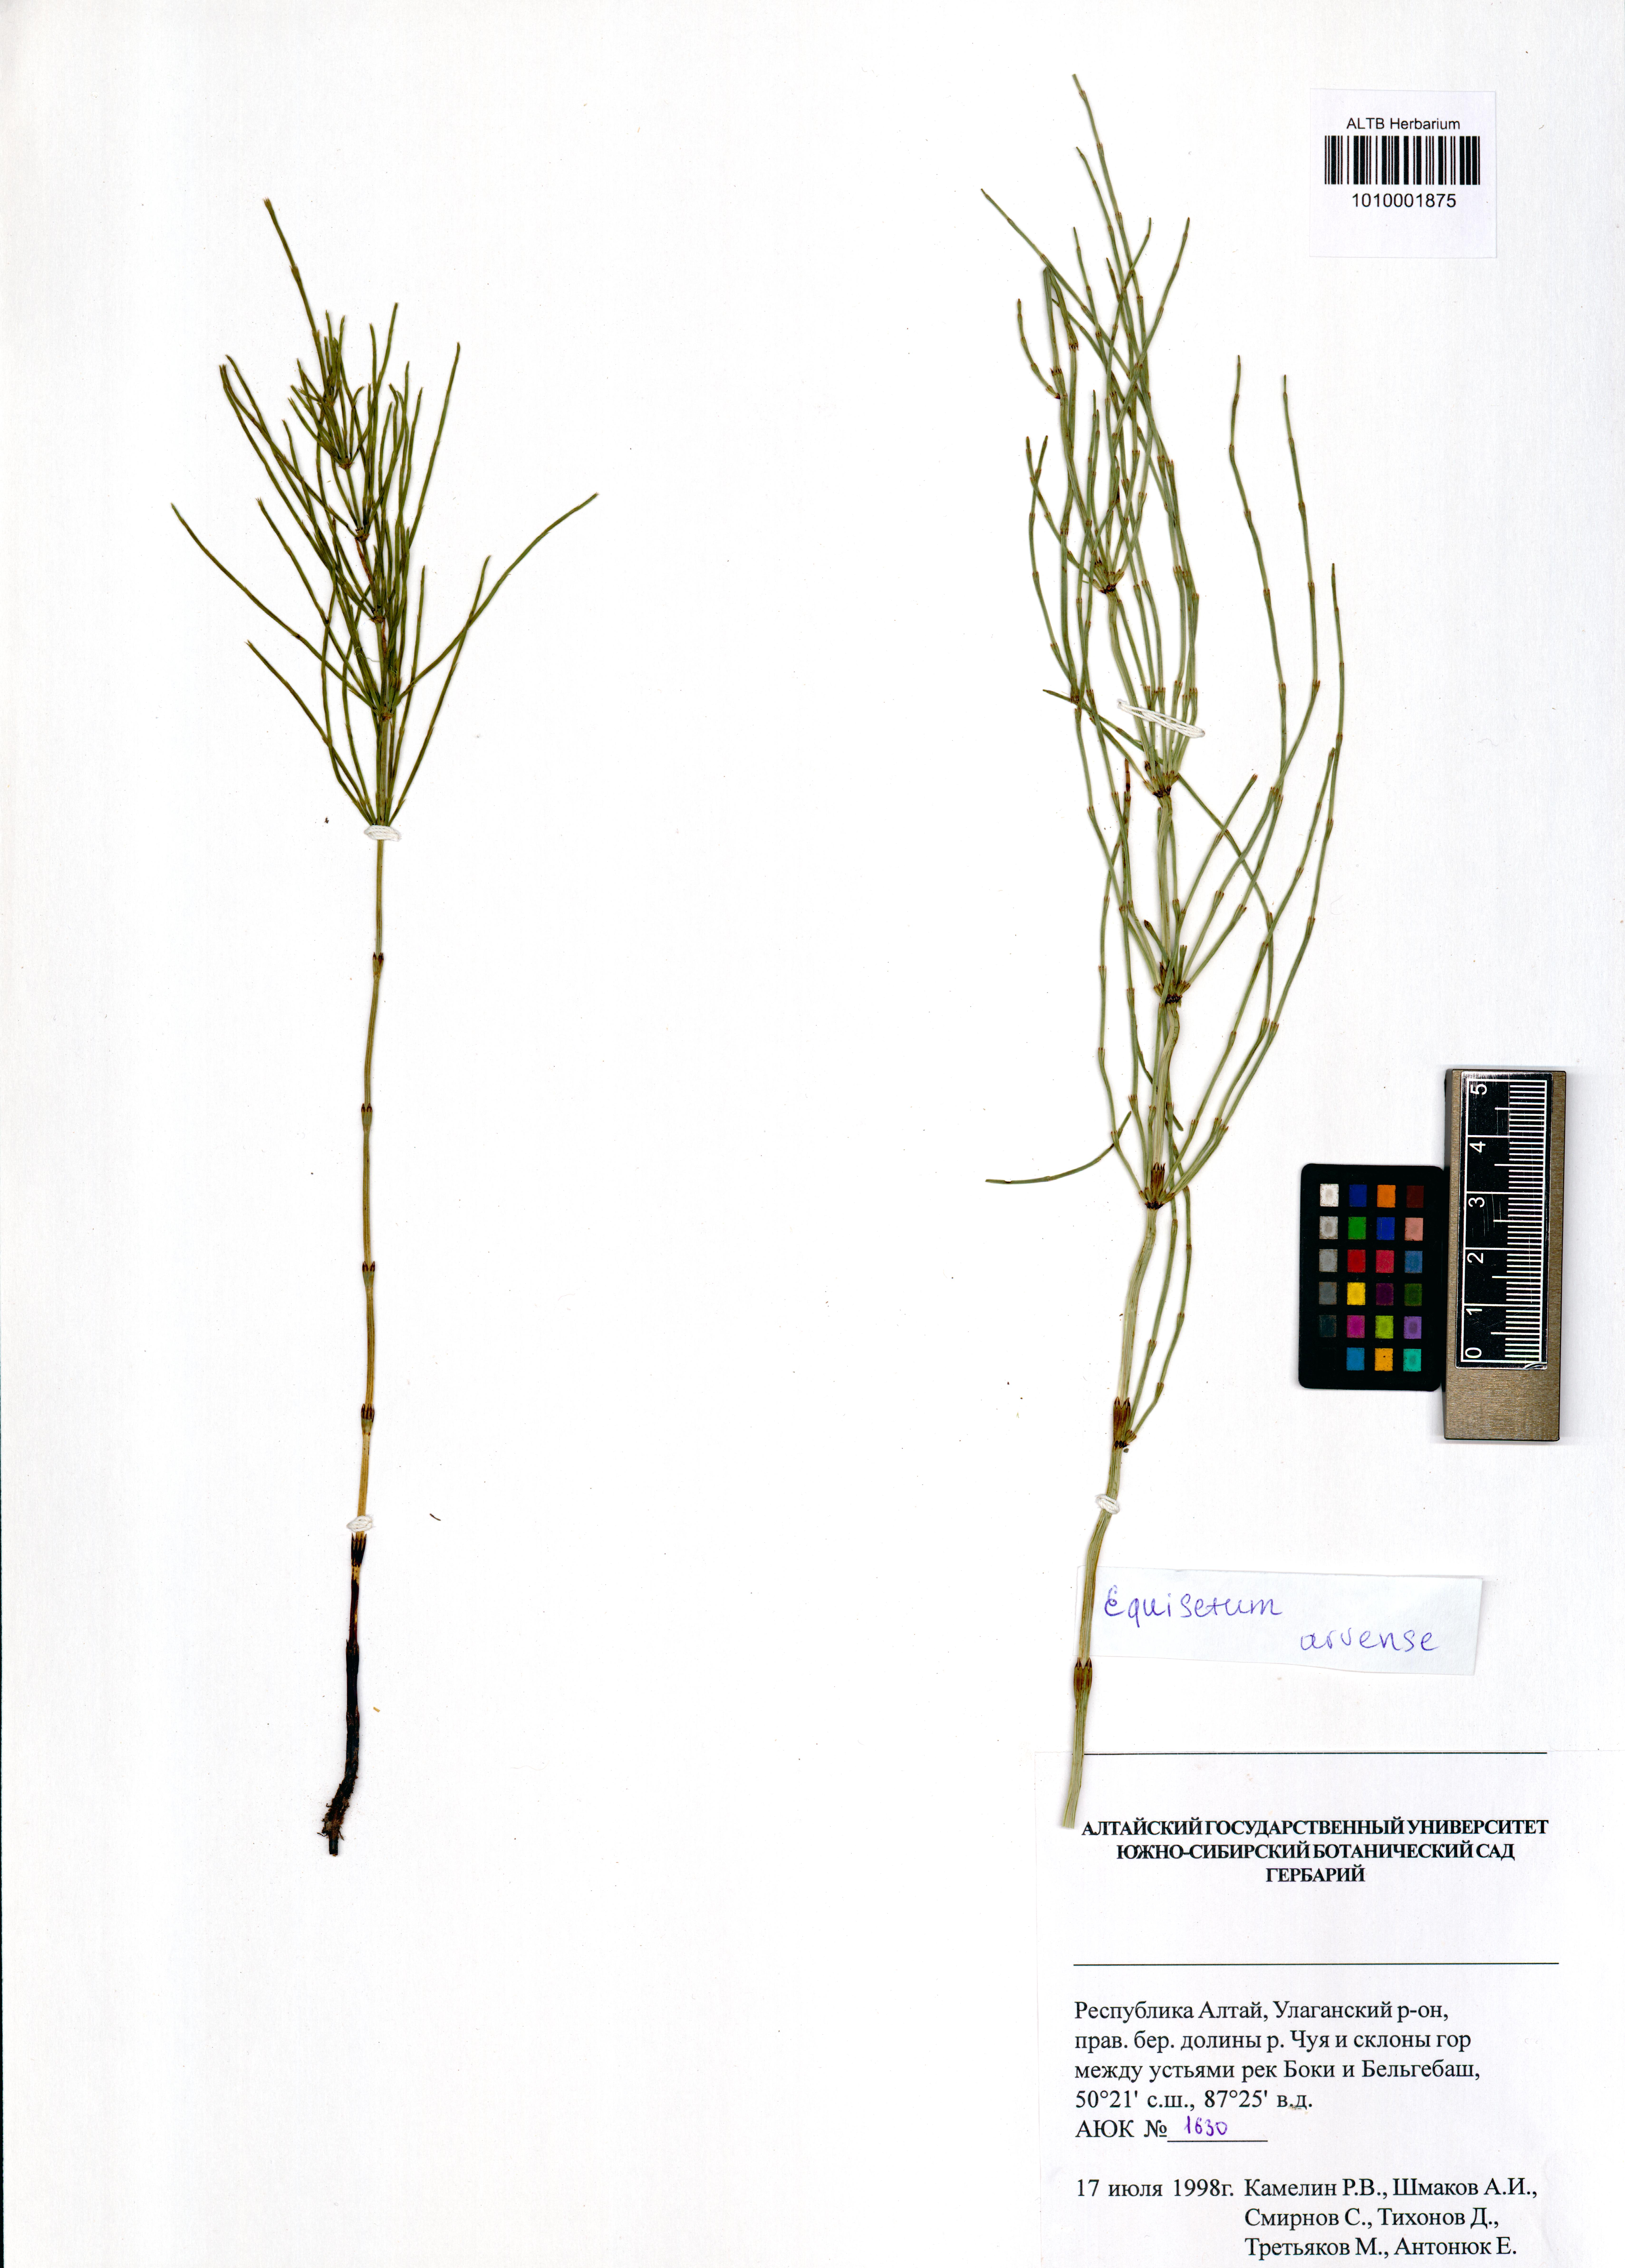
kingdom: Plantae
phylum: Tracheophyta
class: Polypodiopsida
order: Equisetales
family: Equisetaceae
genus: Equisetum
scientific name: Equisetum arvense
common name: Field horsetail
